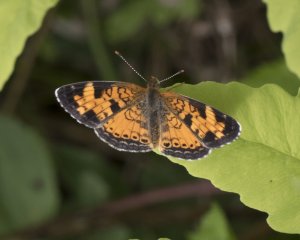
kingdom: Animalia
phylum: Arthropoda
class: Insecta
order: Lepidoptera
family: Nymphalidae
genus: Phyciodes
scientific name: Phyciodes tharos
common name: Northern Crescent
